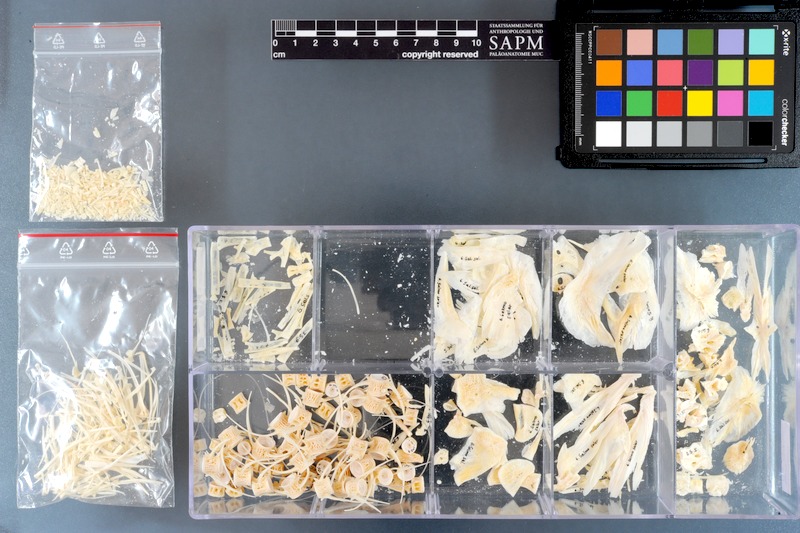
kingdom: Animalia
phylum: Chordata
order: Salmoniformes
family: Salmonidae
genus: Salmo
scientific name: Salmo salar
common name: Atlantic salmon
